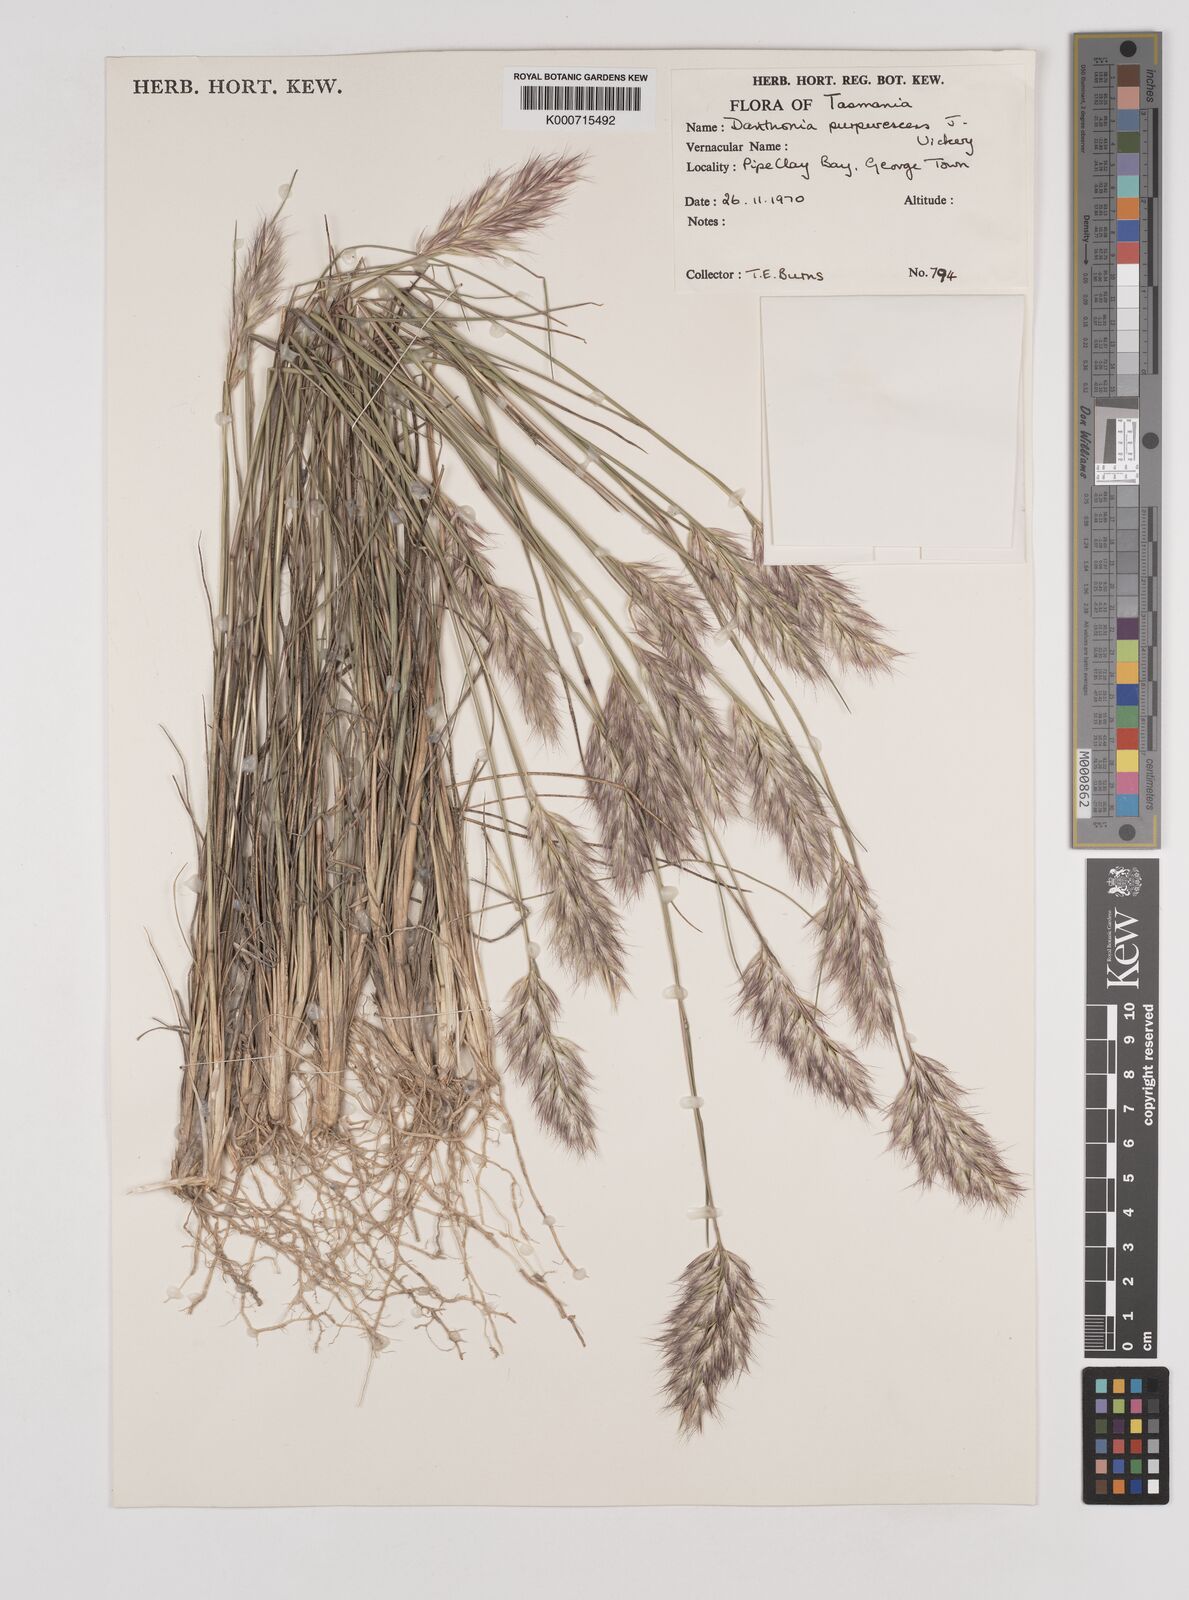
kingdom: Plantae
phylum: Tracheophyta
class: Liliopsida
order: Poales
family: Poaceae
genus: Rytidosperma
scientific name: Rytidosperma tenuius
